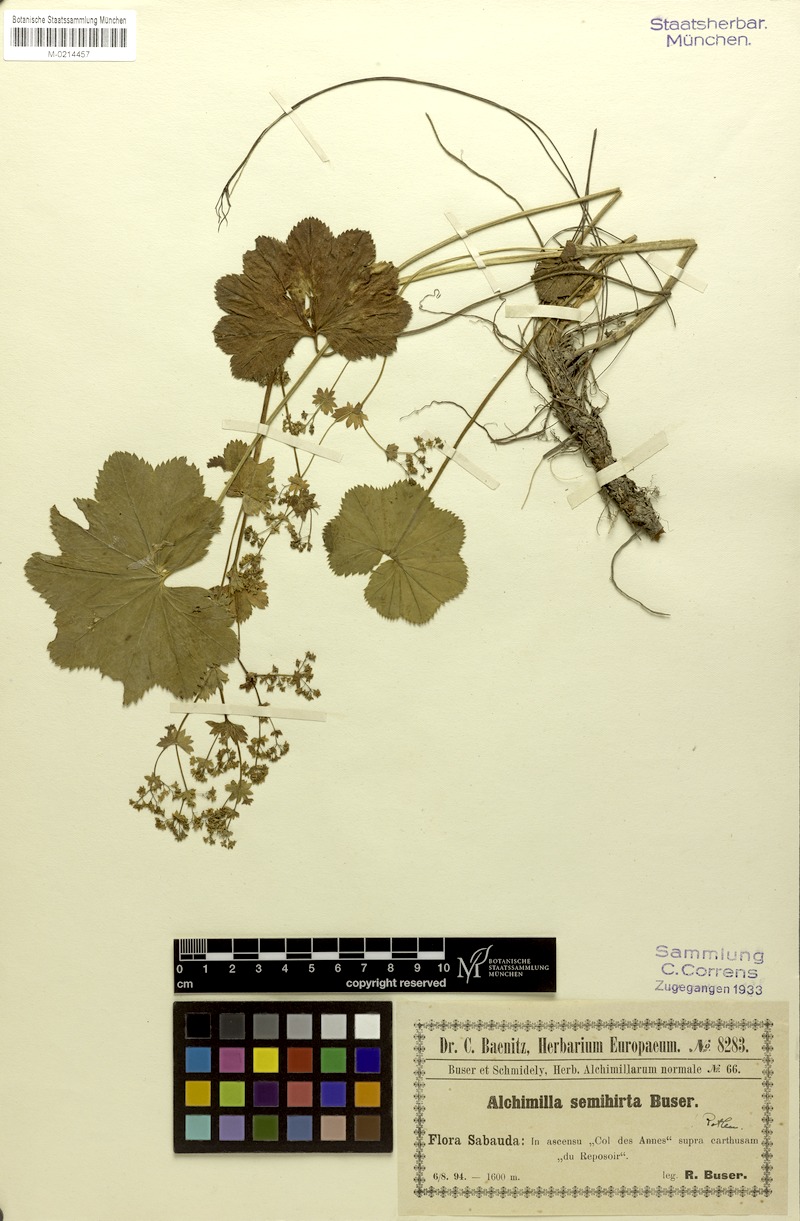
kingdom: Plantae
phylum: Tracheophyta
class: Magnoliopsida
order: Rosales
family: Rosaceae
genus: Alchemilla
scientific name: Alchemilla semihirta
